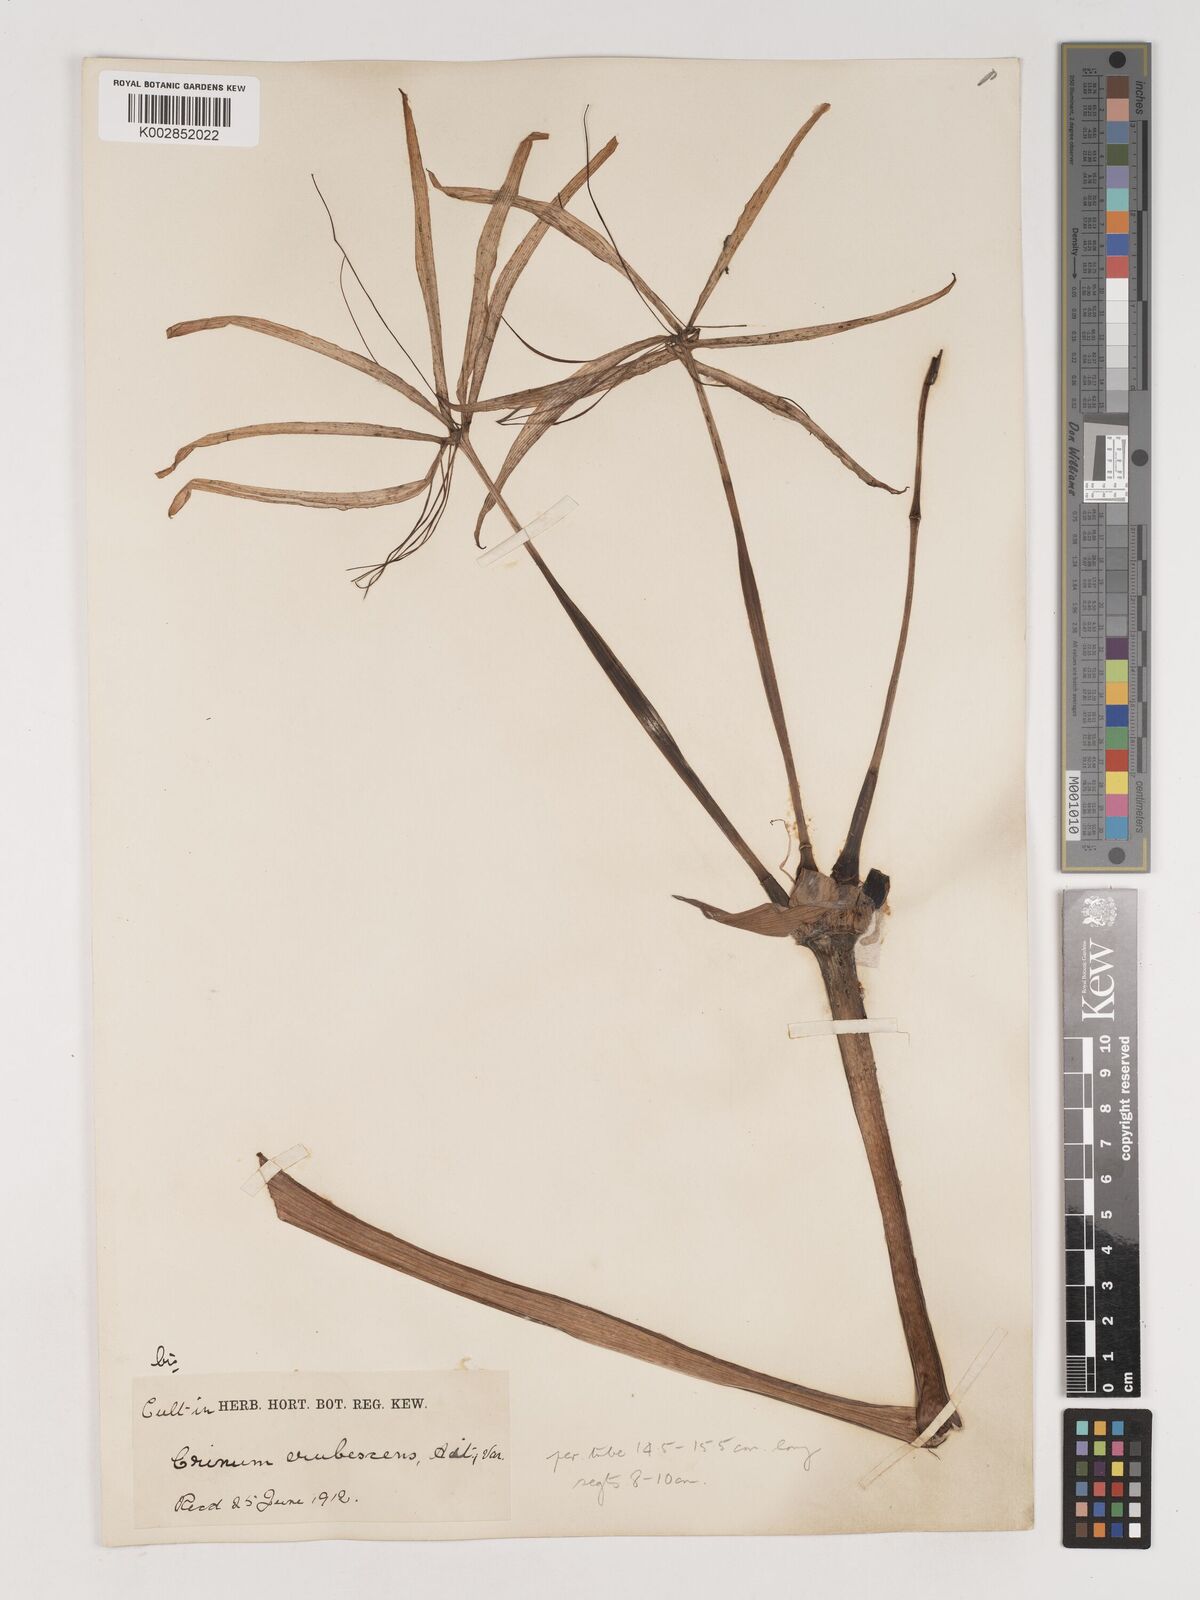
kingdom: Plantae
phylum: Tracheophyta
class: Liliopsida
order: Asparagales
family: Amaryllidaceae
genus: Crinum
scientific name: Crinum erubescens
